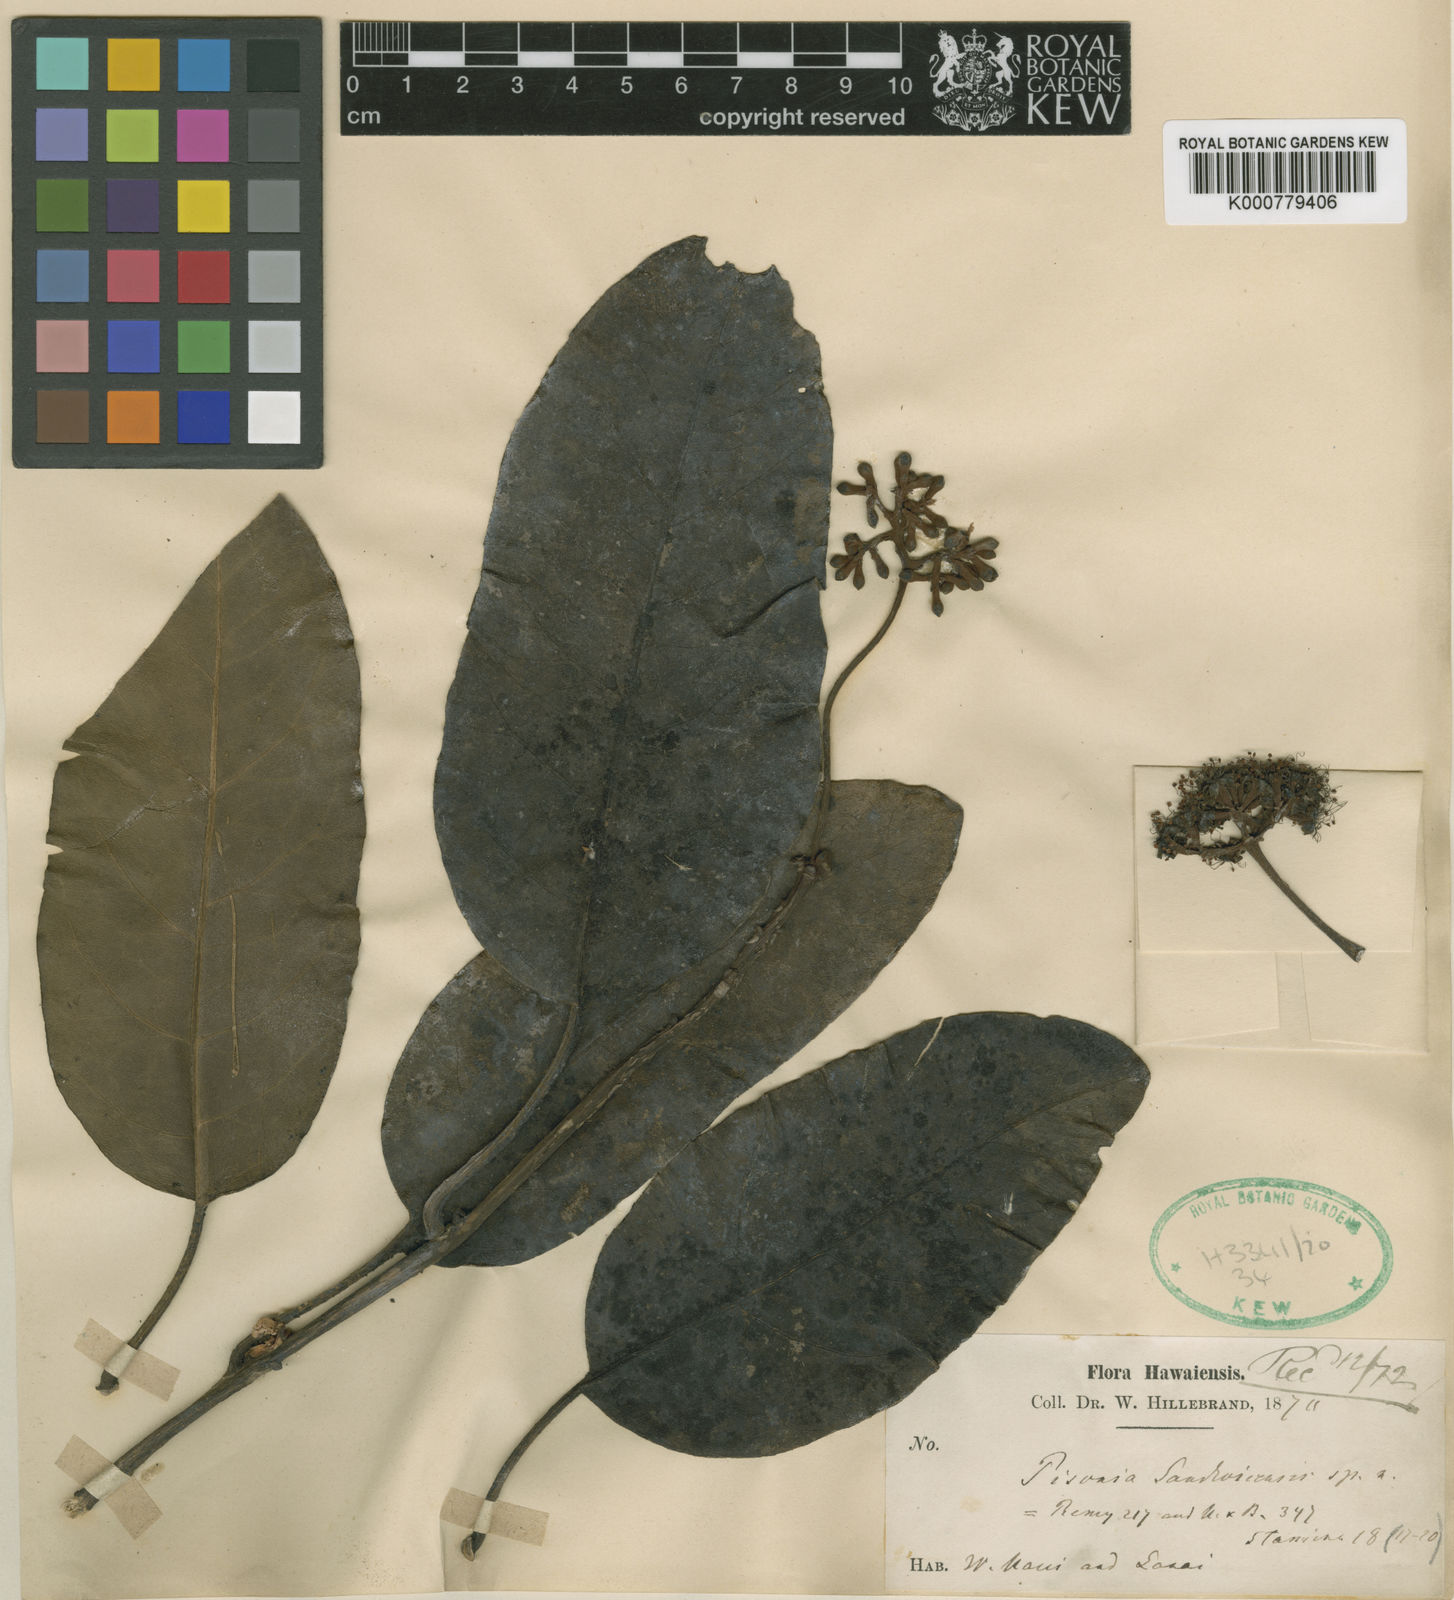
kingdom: Plantae
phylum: Tracheophyta
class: Magnoliopsida
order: Caryophyllales
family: Nyctaginaceae
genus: Pisonia
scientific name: Pisonia sandwicensis
